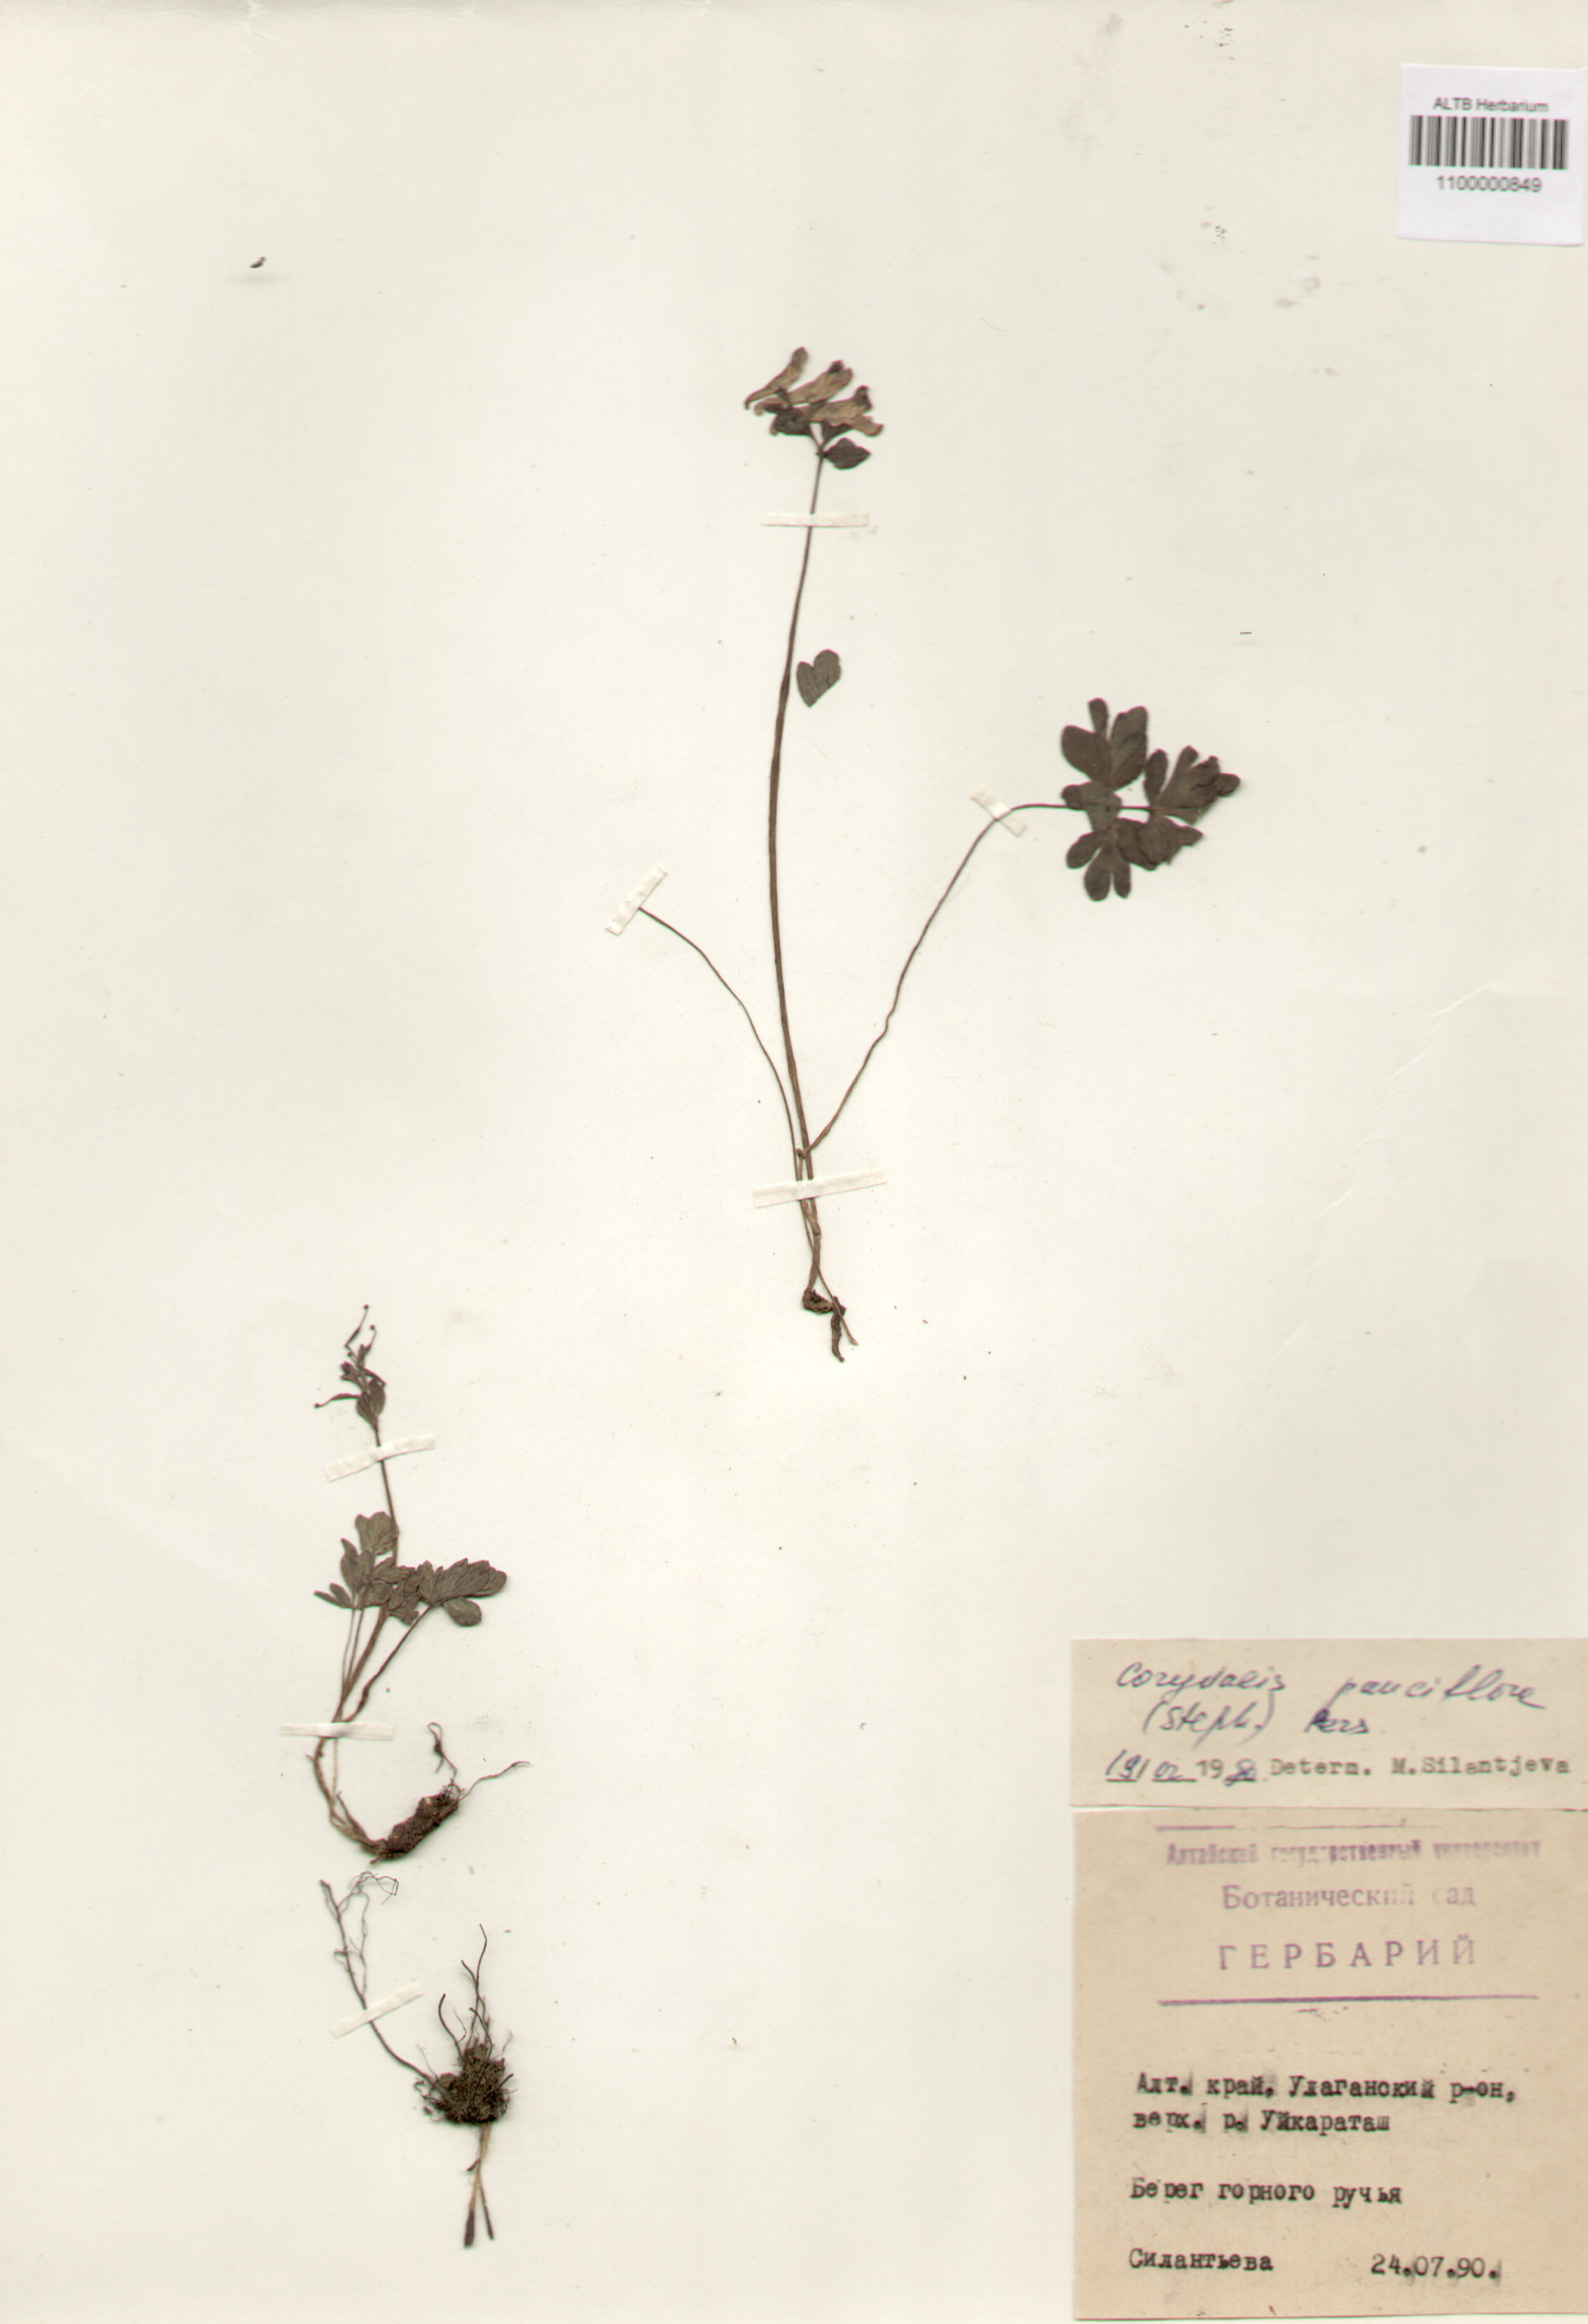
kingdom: Plantae
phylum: Tracheophyta
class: Magnoliopsida
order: Ranunculales
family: Papaveraceae
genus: Corydalis
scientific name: Corydalis pauciflora
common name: Blue corydalis
